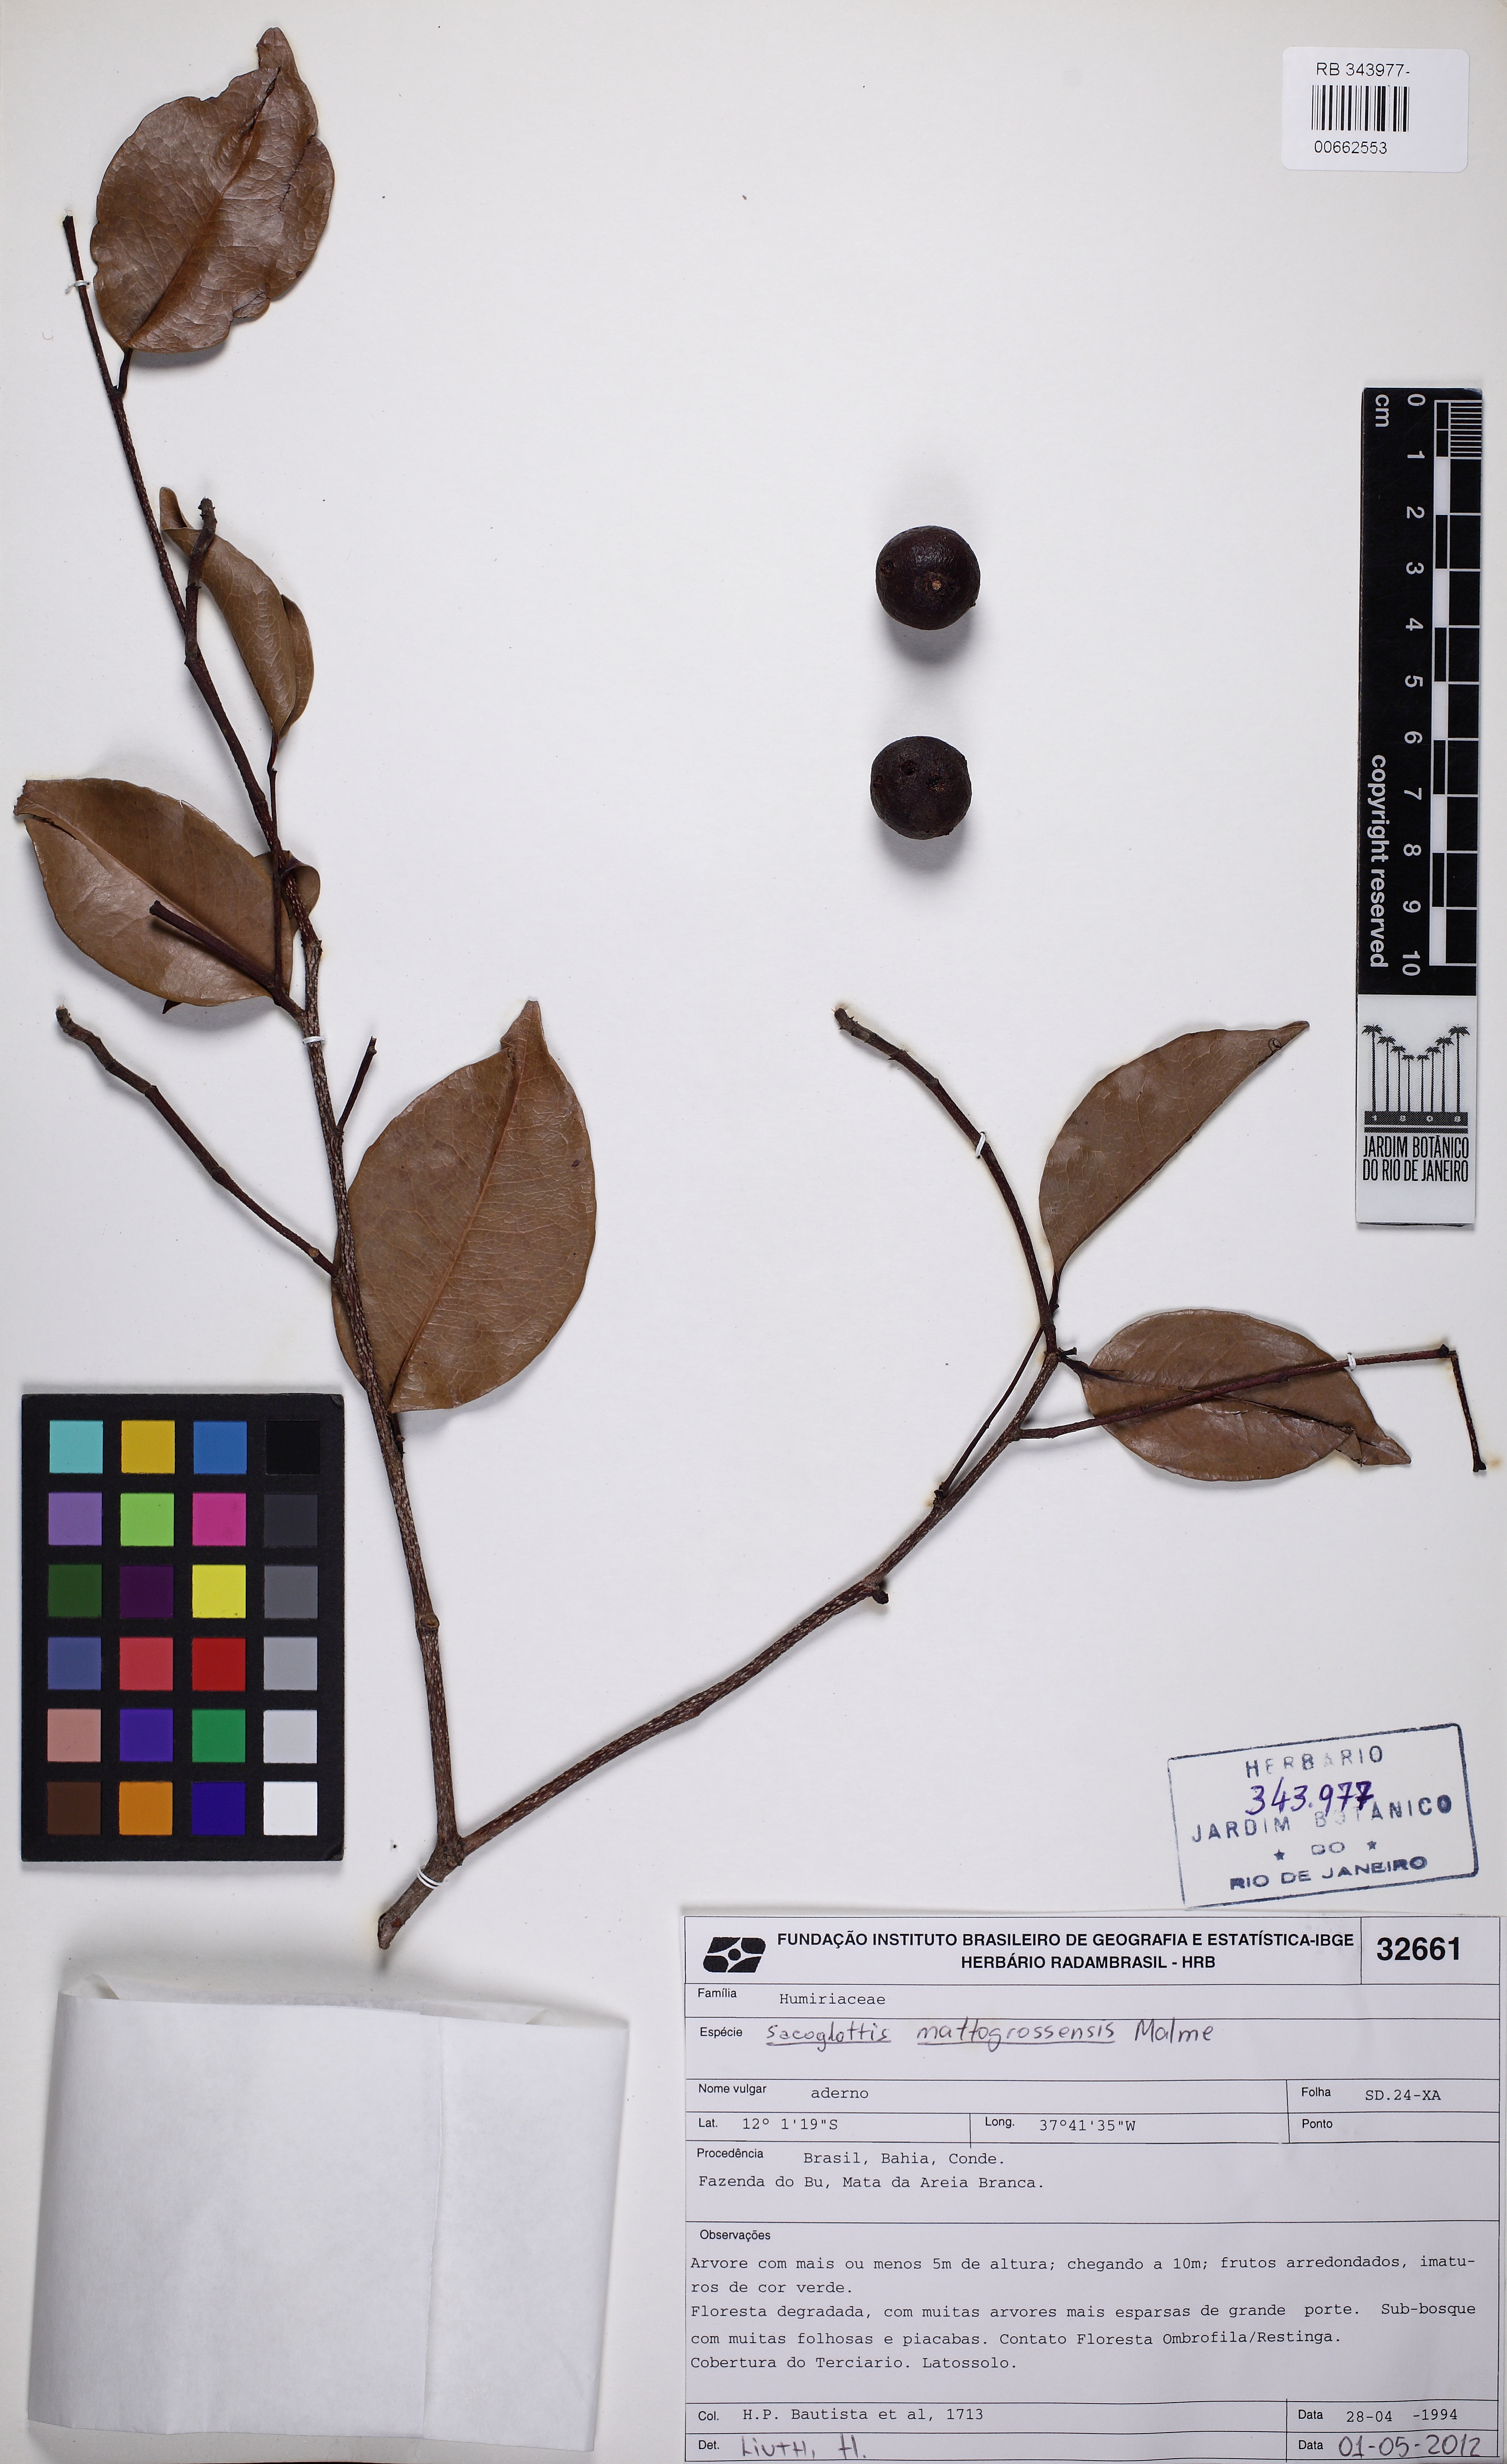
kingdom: Plantae
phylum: Tracheophyta
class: Magnoliopsida
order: Malpighiales
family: Humiriaceae
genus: Sacoglottis
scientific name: Sacoglottis mattogrossensis
